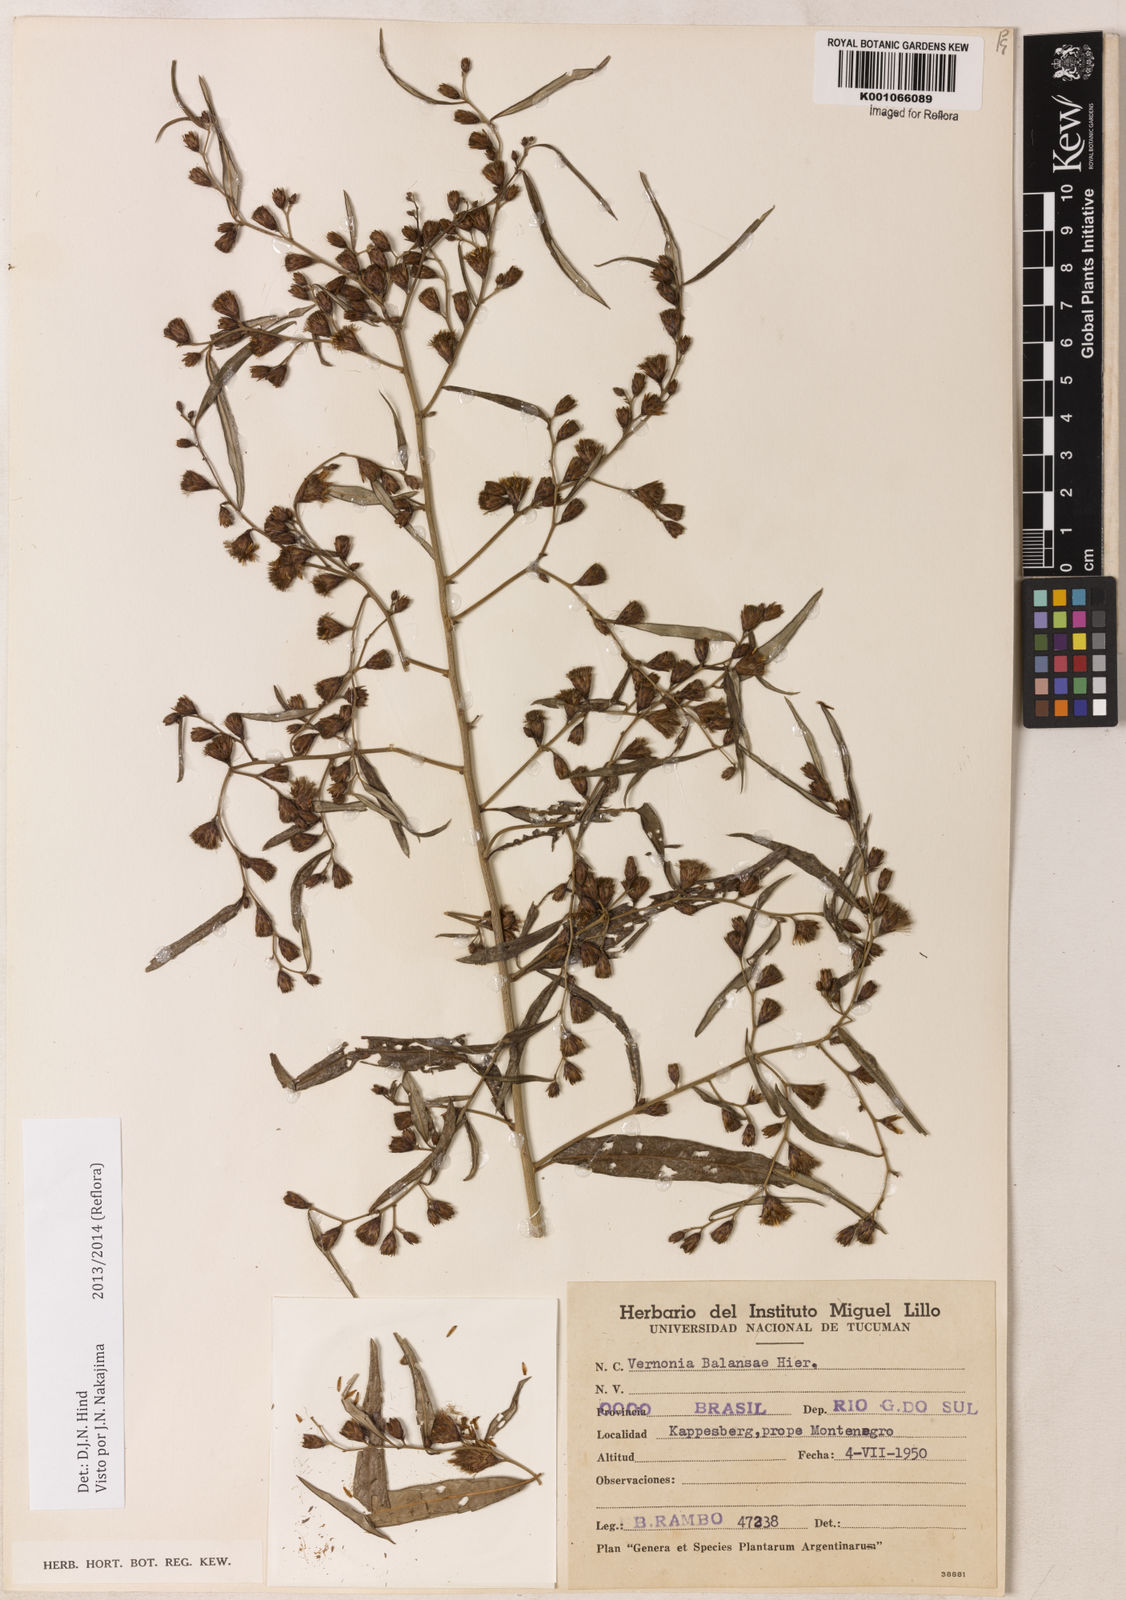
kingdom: Plantae
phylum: Tracheophyta
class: Magnoliopsida
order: Asterales
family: Asteraceae
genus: Vernonia
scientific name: Vernonia balansae
